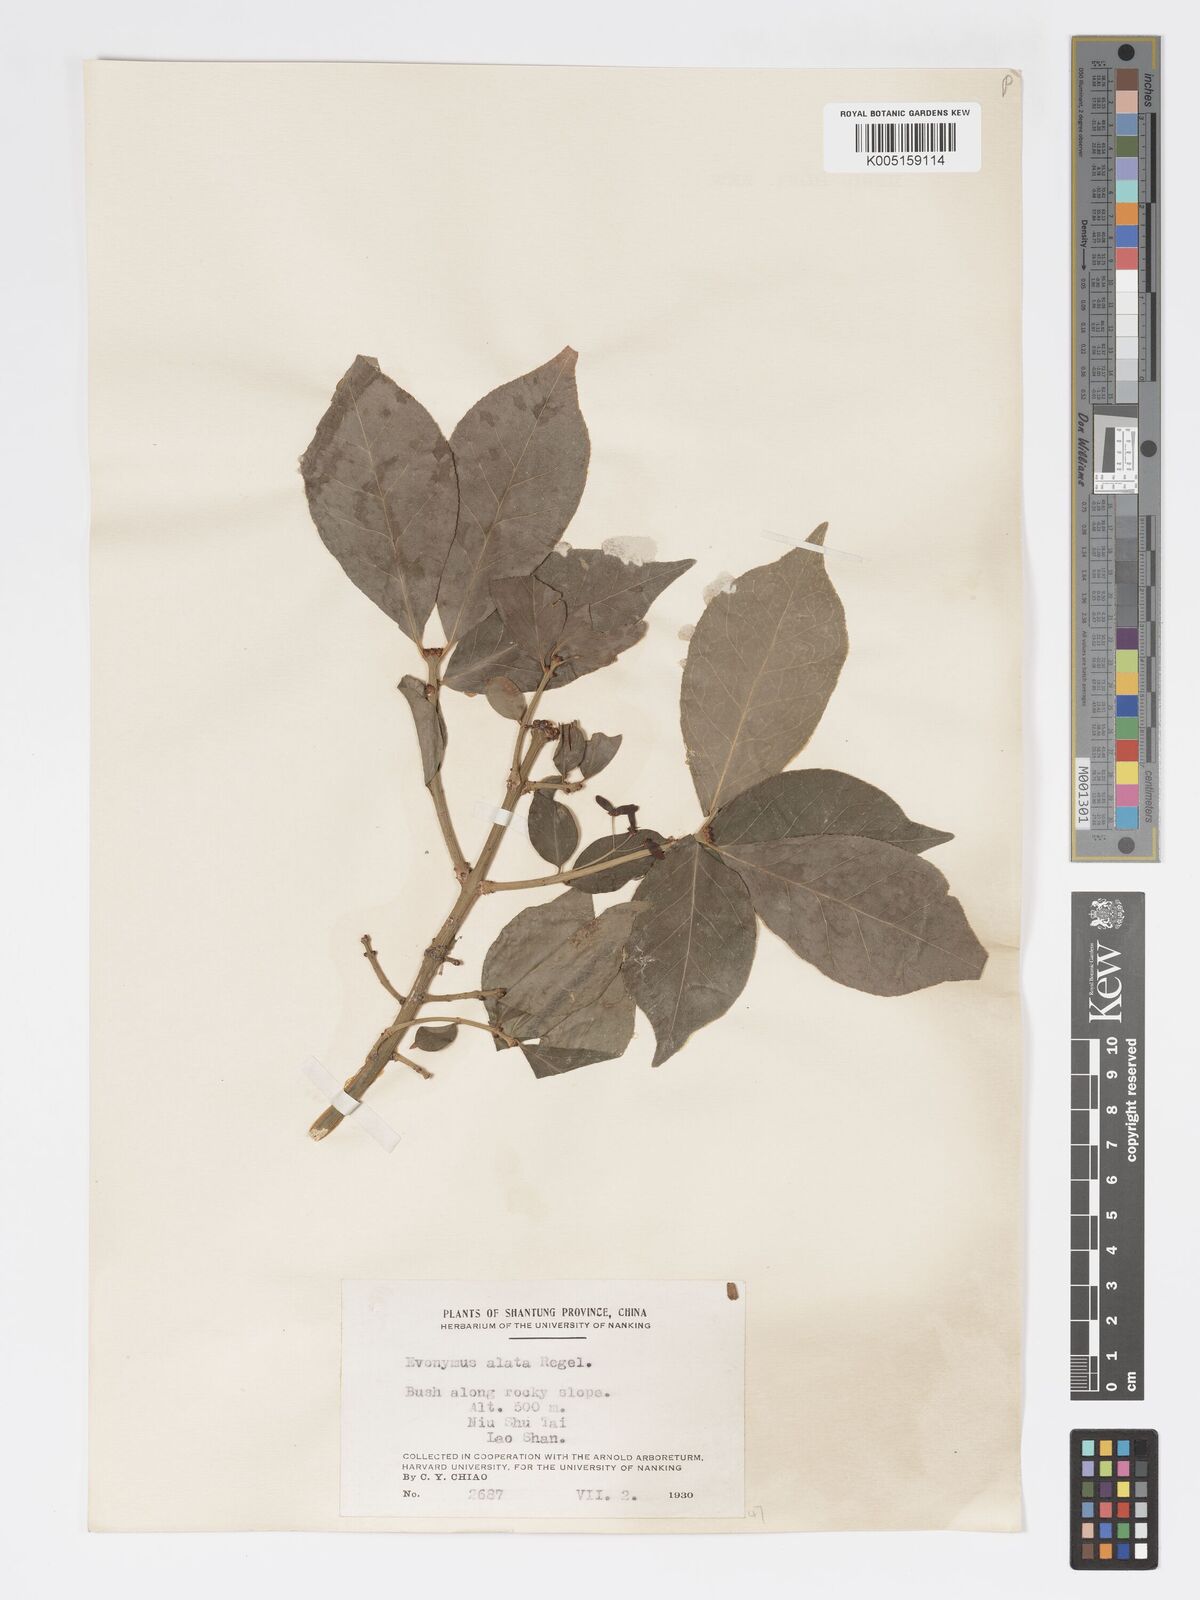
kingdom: Plantae
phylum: Tracheophyta
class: Magnoliopsida
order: Celastrales
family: Celastraceae
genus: Euonymus
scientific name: Euonymus
